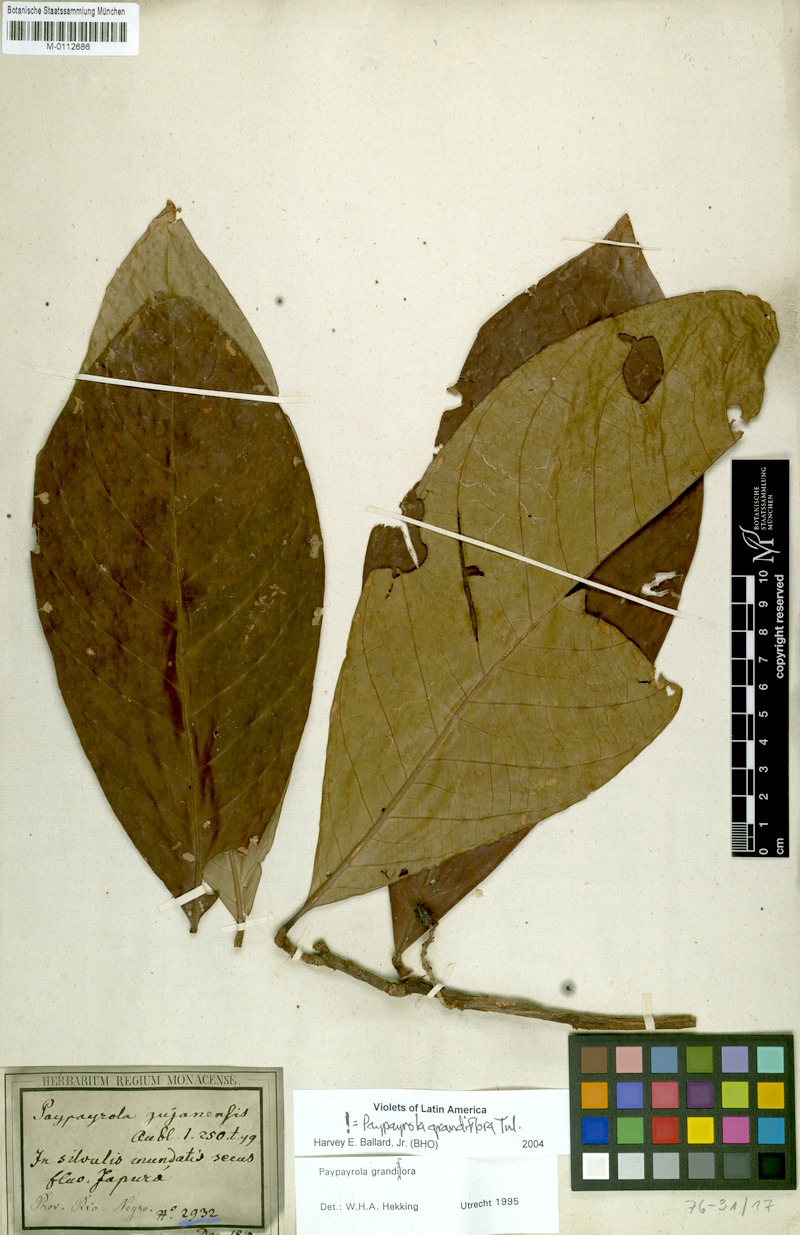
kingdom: Plantae
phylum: Tracheophyta
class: Magnoliopsida
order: Malpighiales
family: Violaceae
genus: Paypayrola
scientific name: Paypayrola grandiflora
